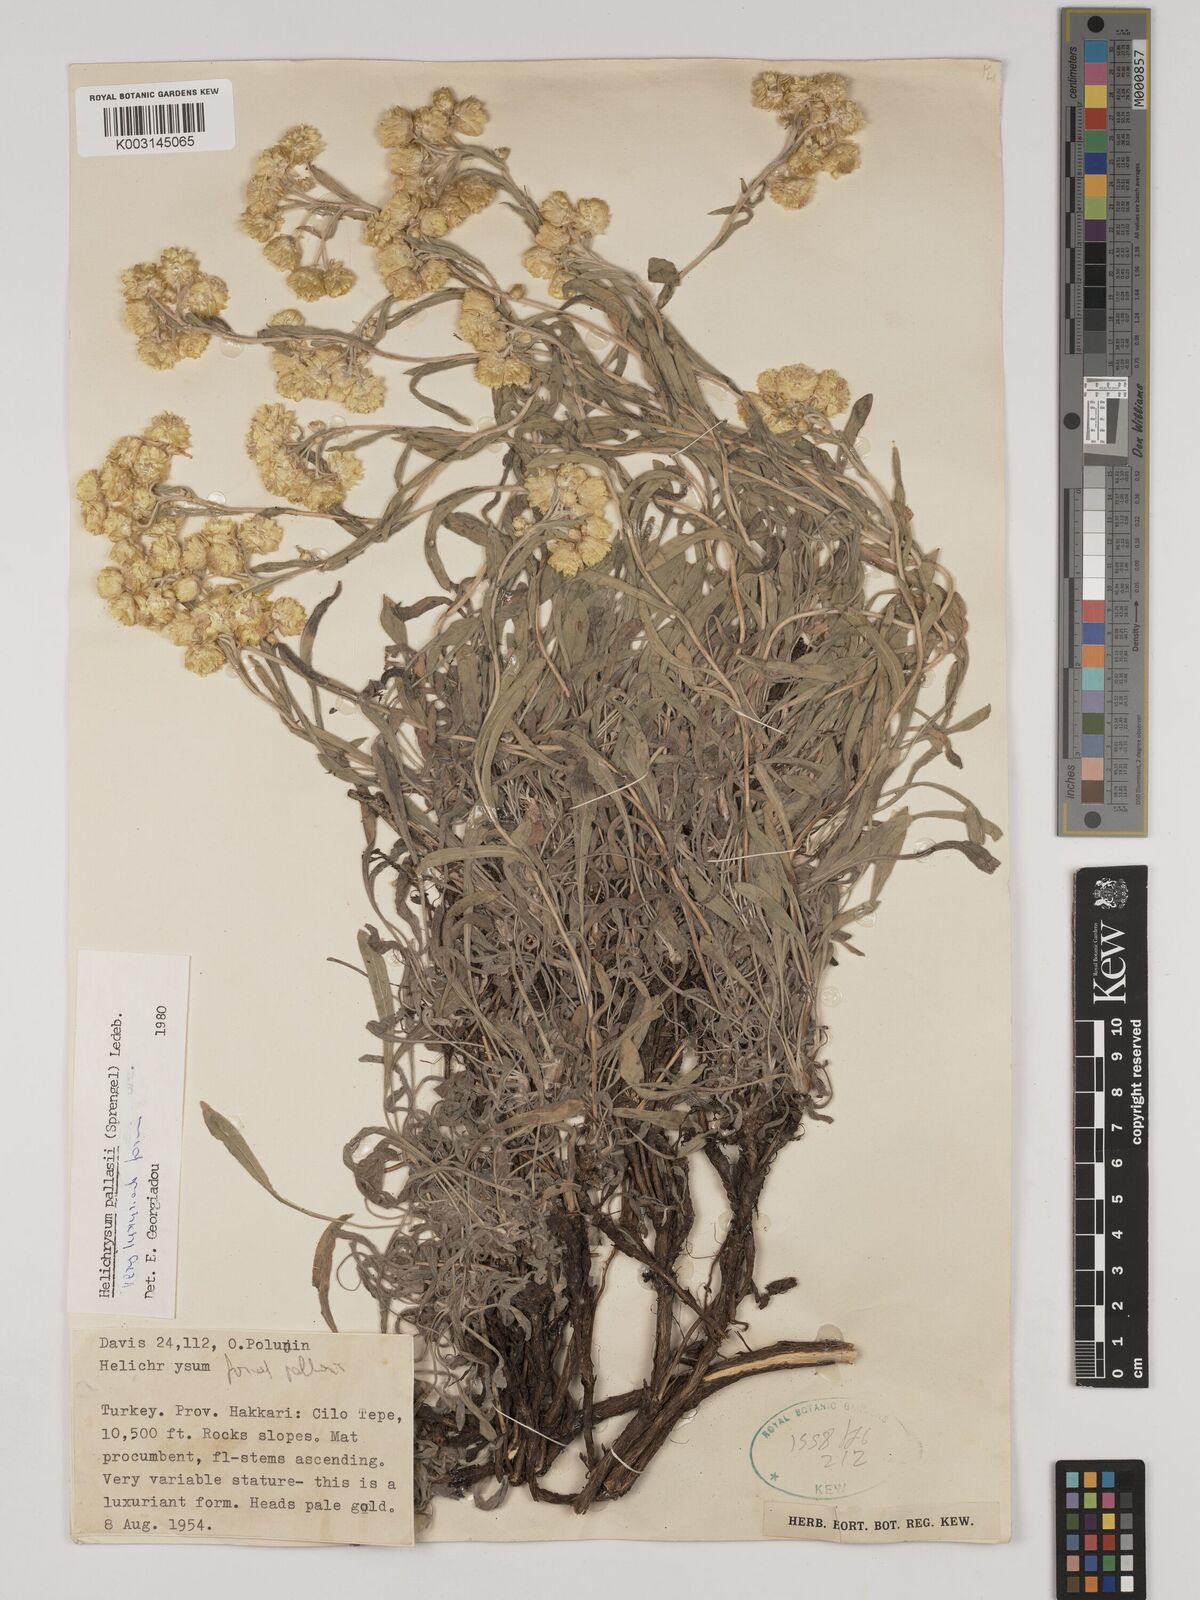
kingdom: Plantae
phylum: Tracheophyta
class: Magnoliopsida
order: Asterales
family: Asteraceae
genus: Helichrysum
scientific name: Helichrysum pallasii
